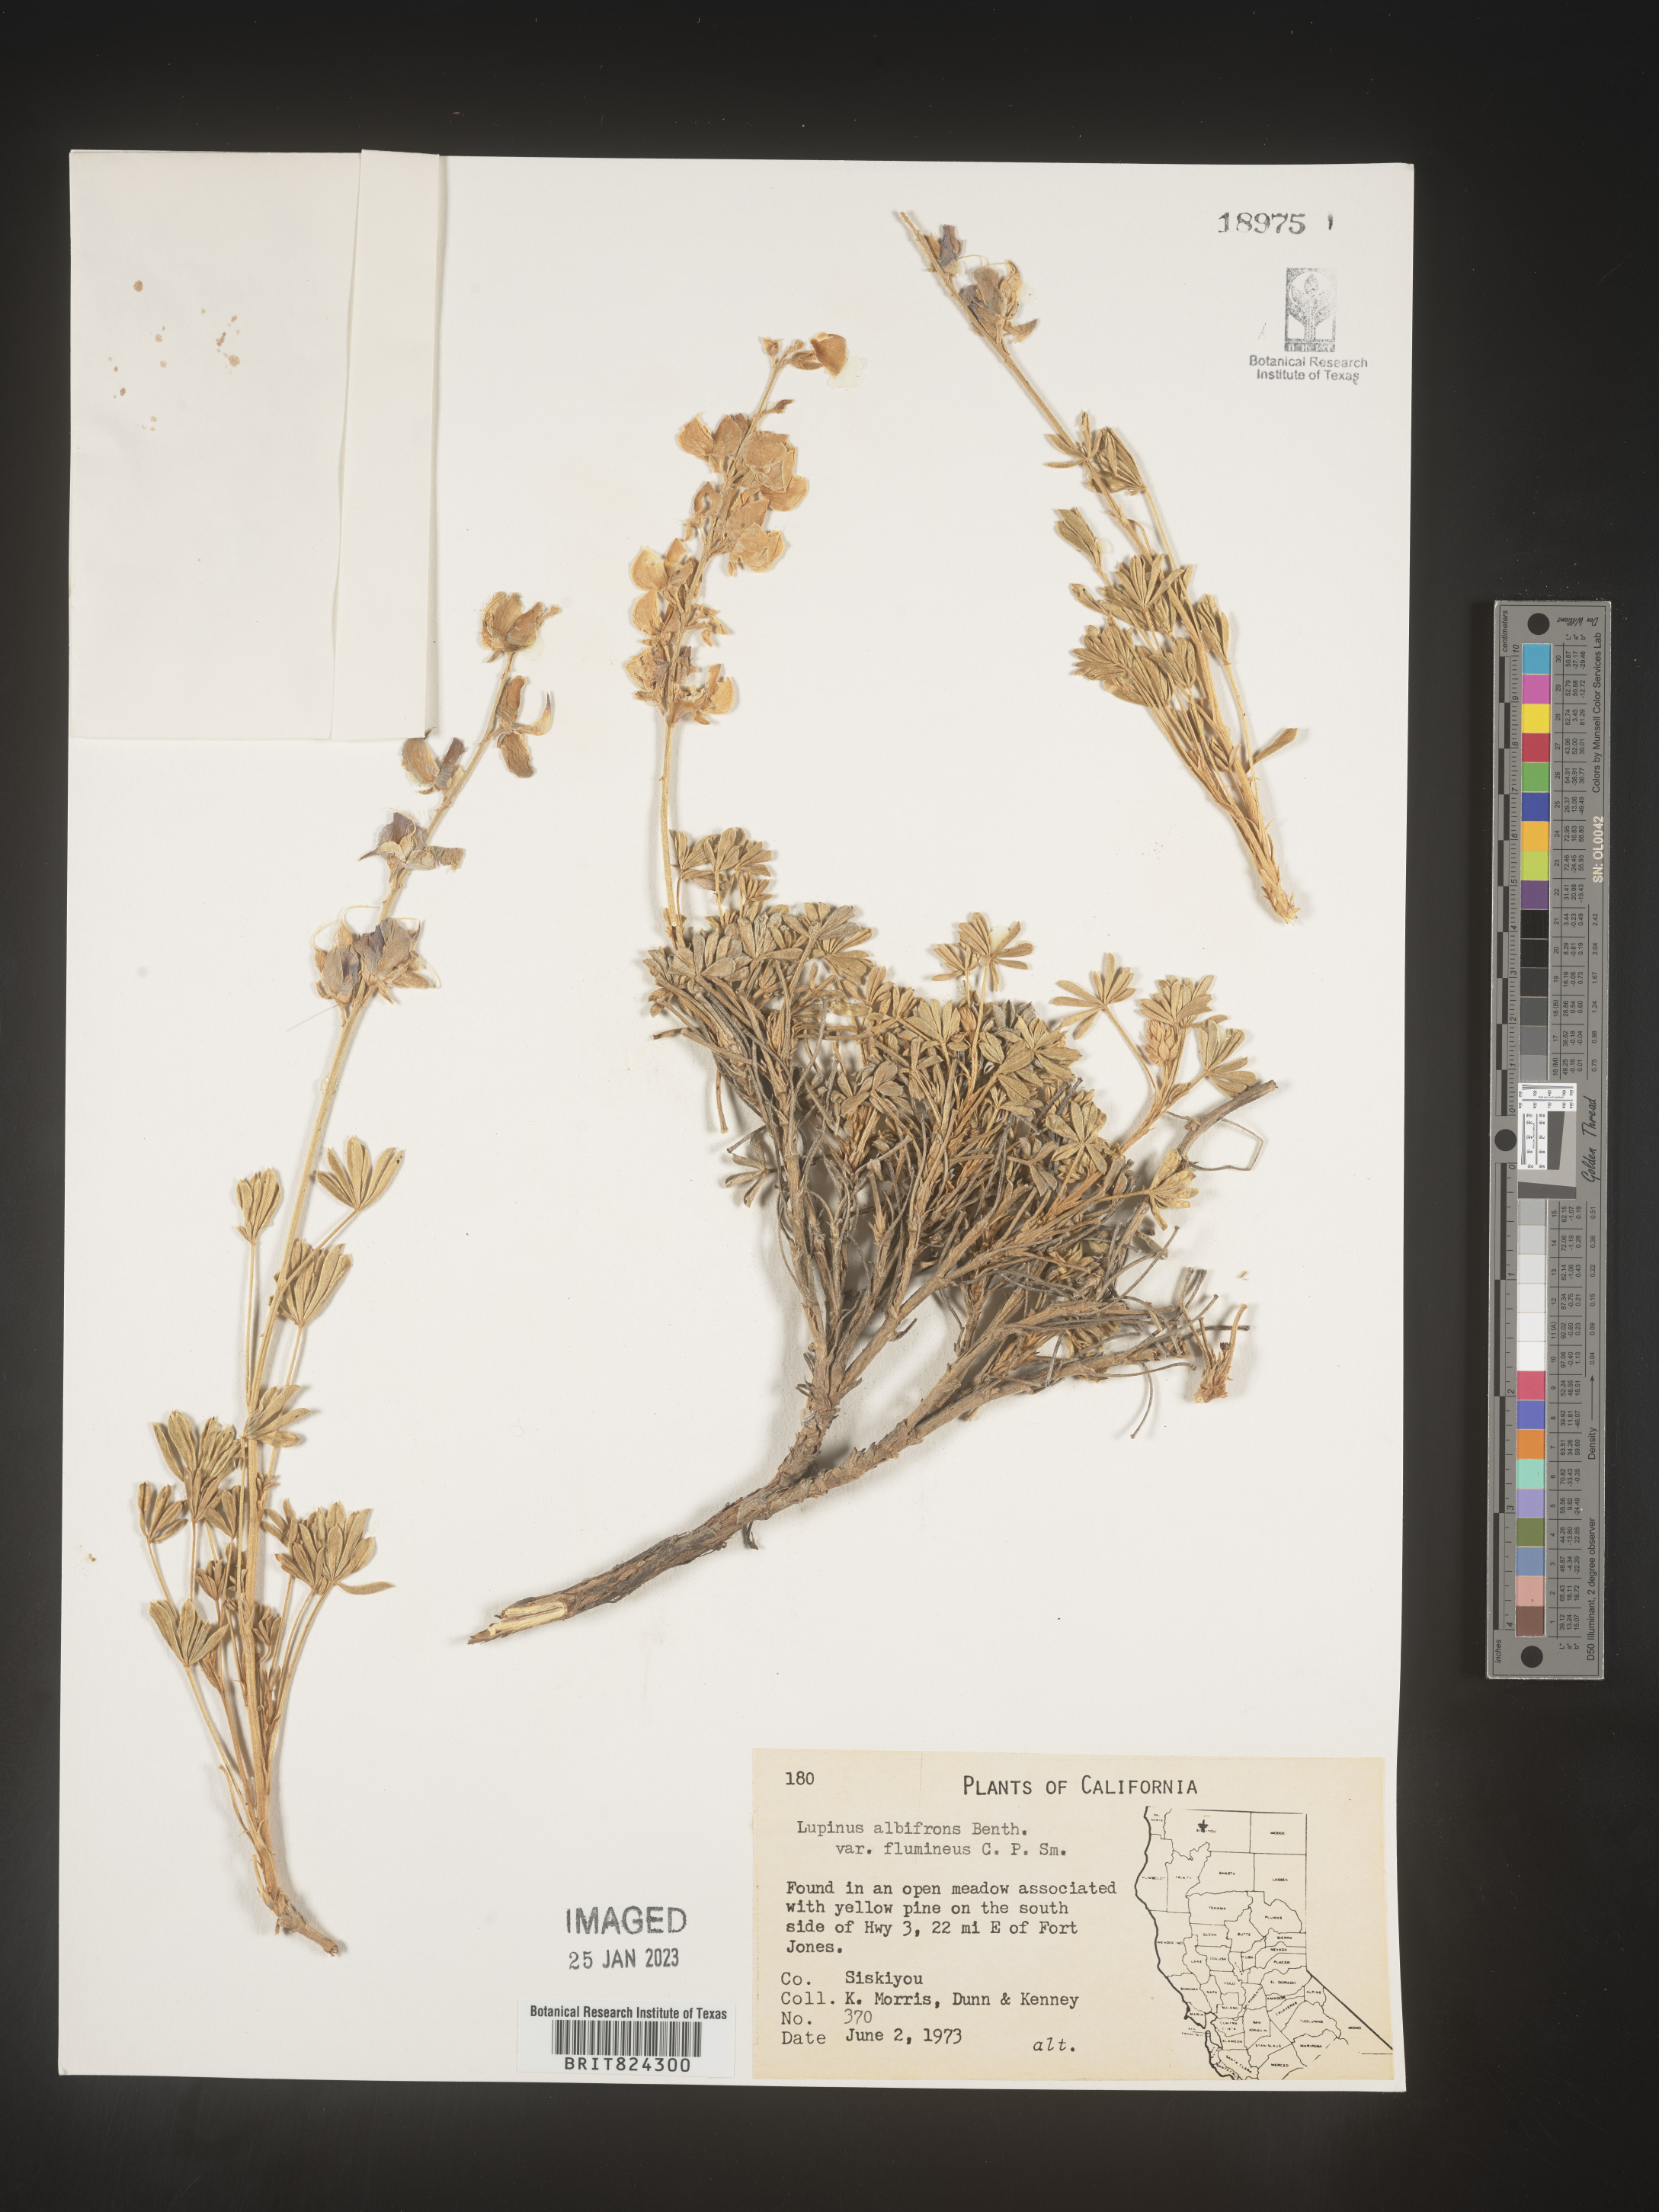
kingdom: Plantae
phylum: Tracheophyta
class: Magnoliopsida
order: Fabales
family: Fabaceae
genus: Lupinus
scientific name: Lupinus albifrons
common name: Foothill lupine
